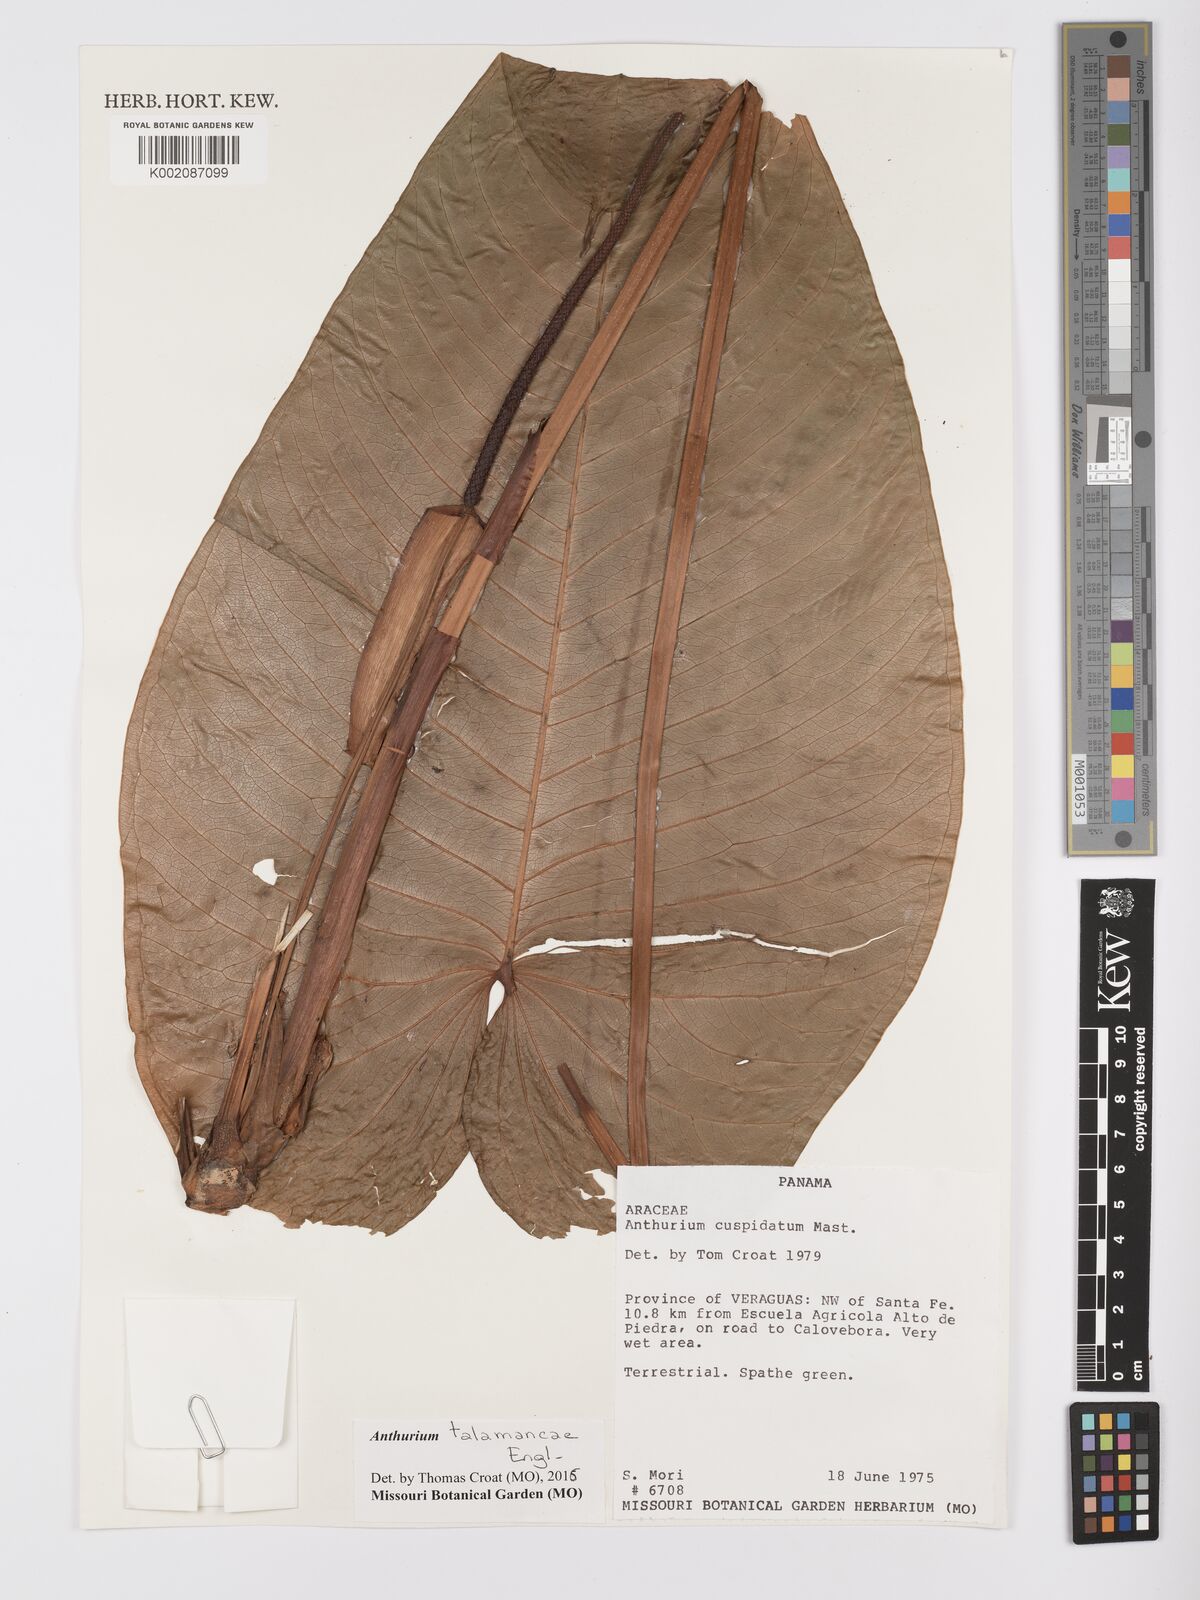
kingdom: Plantae
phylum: Tracheophyta
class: Liliopsida
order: Alismatales
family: Araceae
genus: Anthurium
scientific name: Anthurium talamancae
